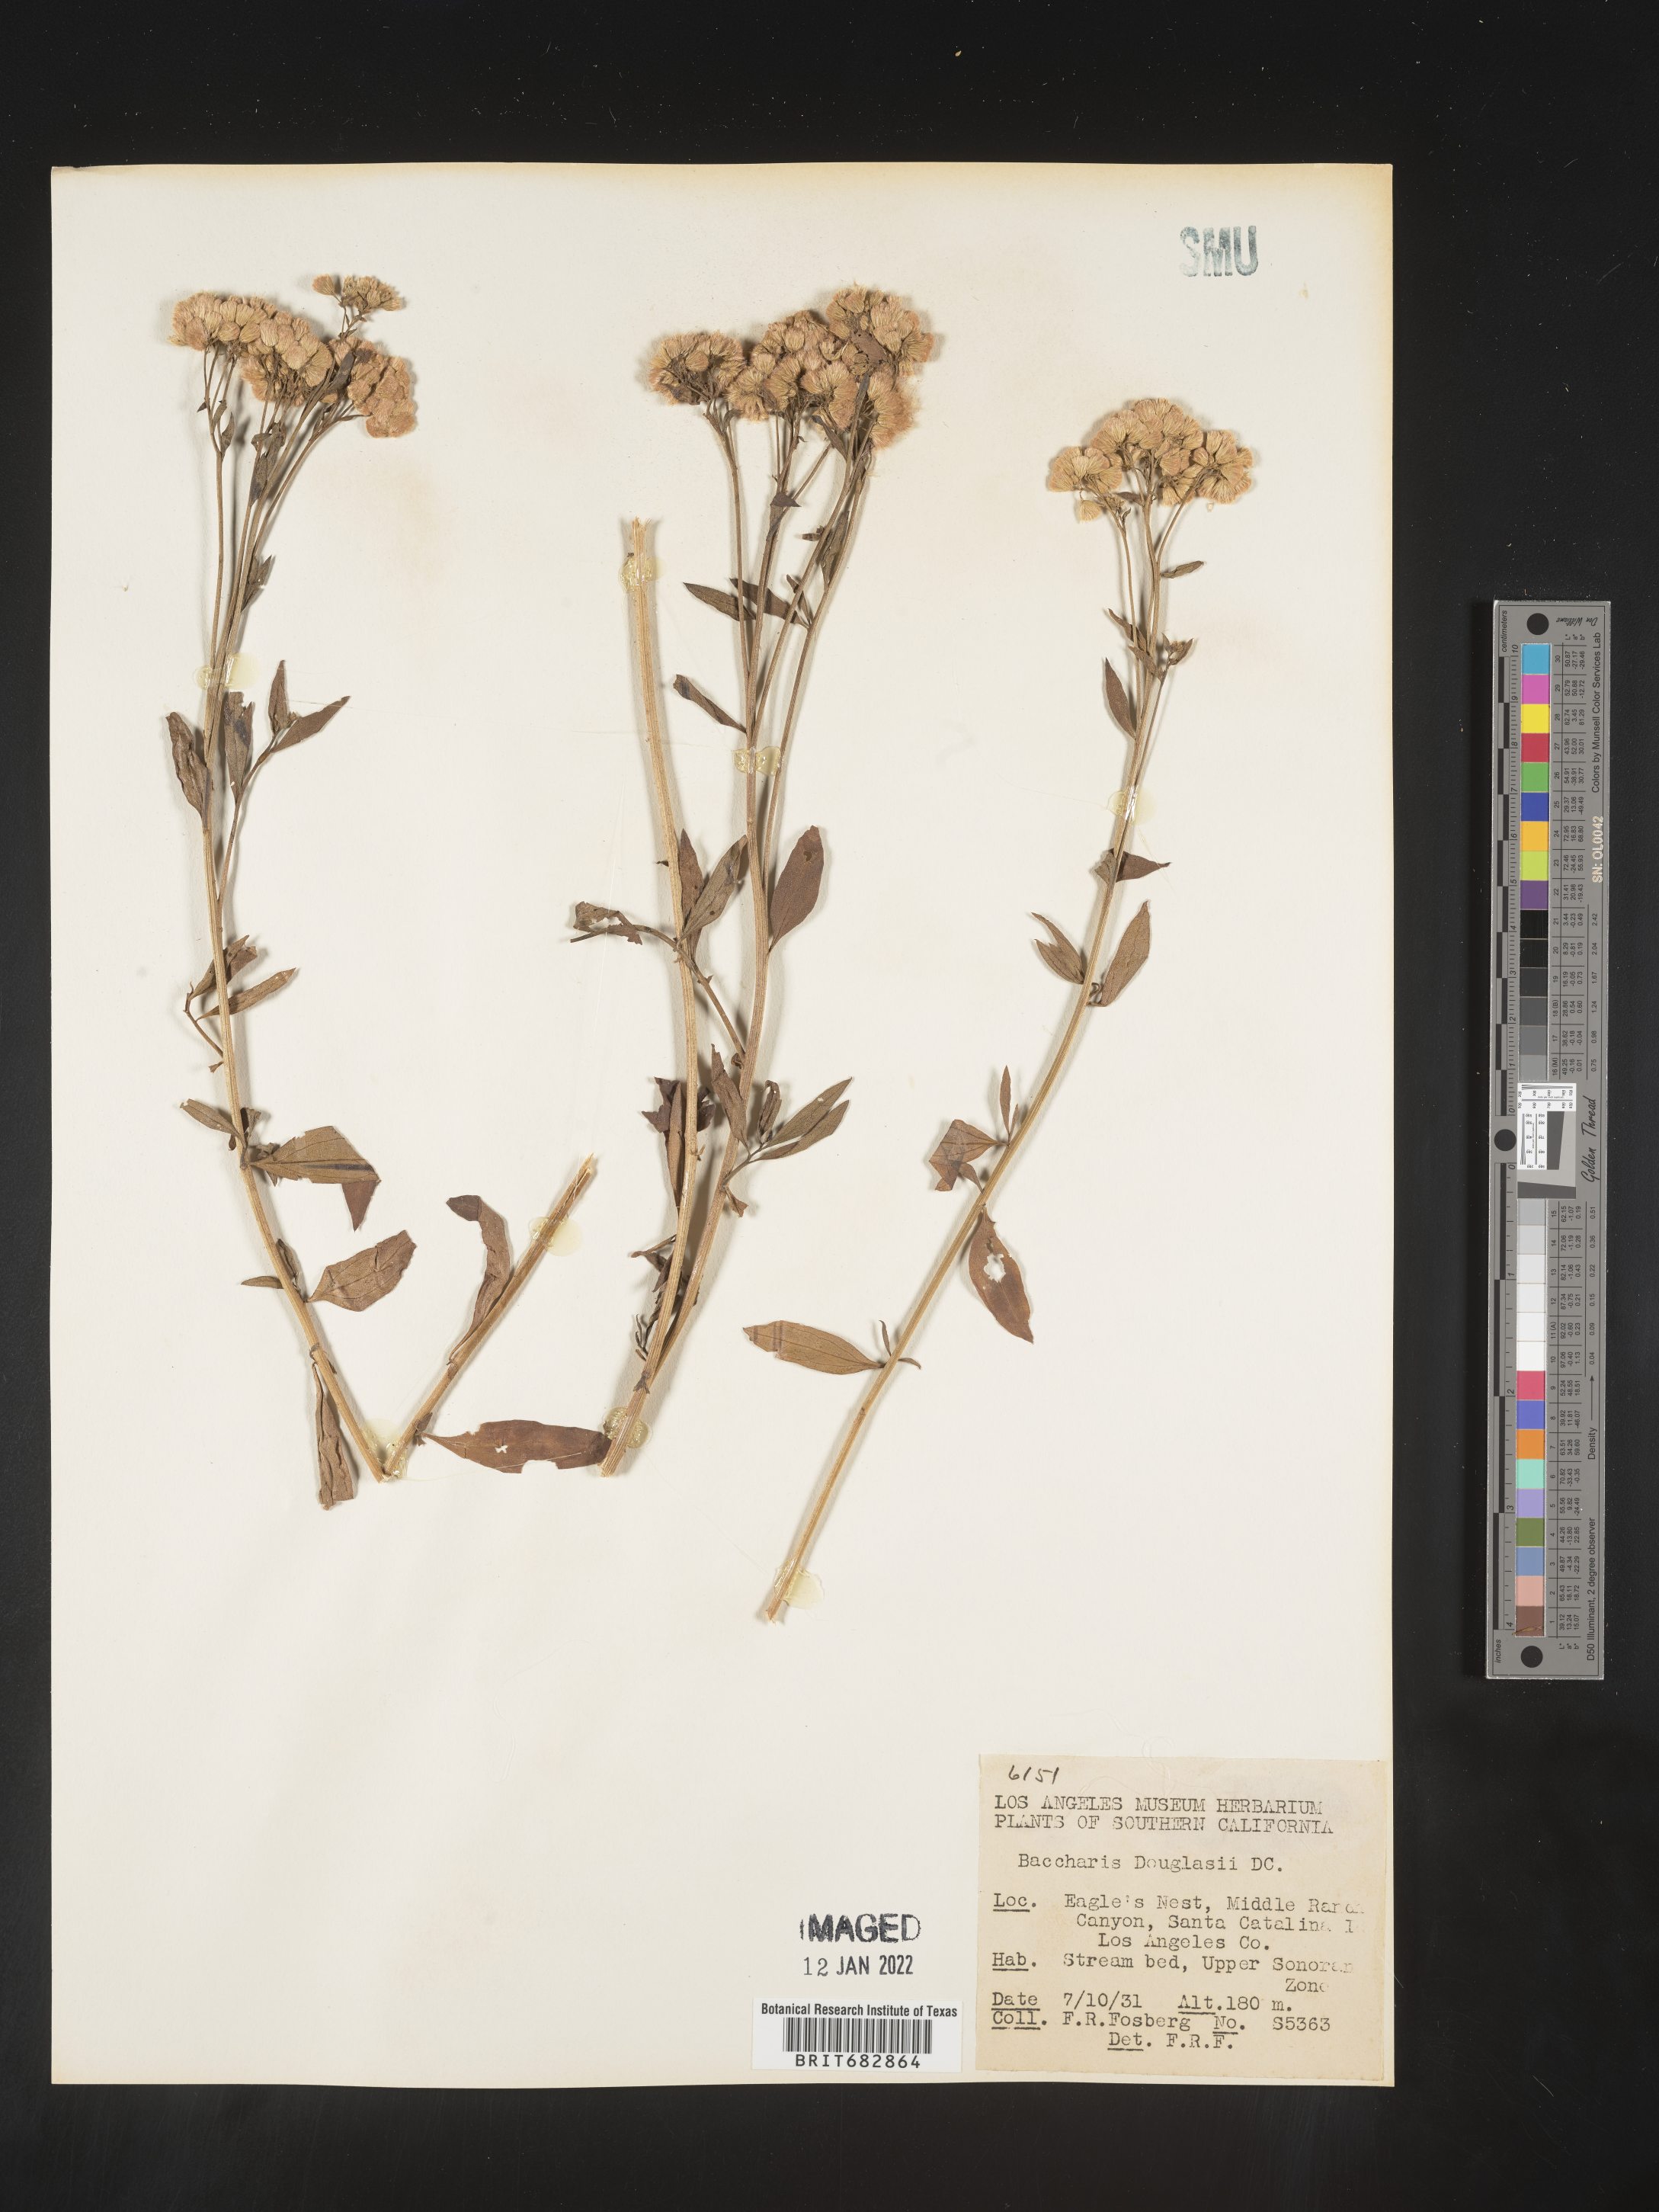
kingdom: Plantae
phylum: Tracheophyta
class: Magnoliopsida
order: Asterales
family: Asteraceae
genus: Baccharis
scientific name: Baccharis douglasii
